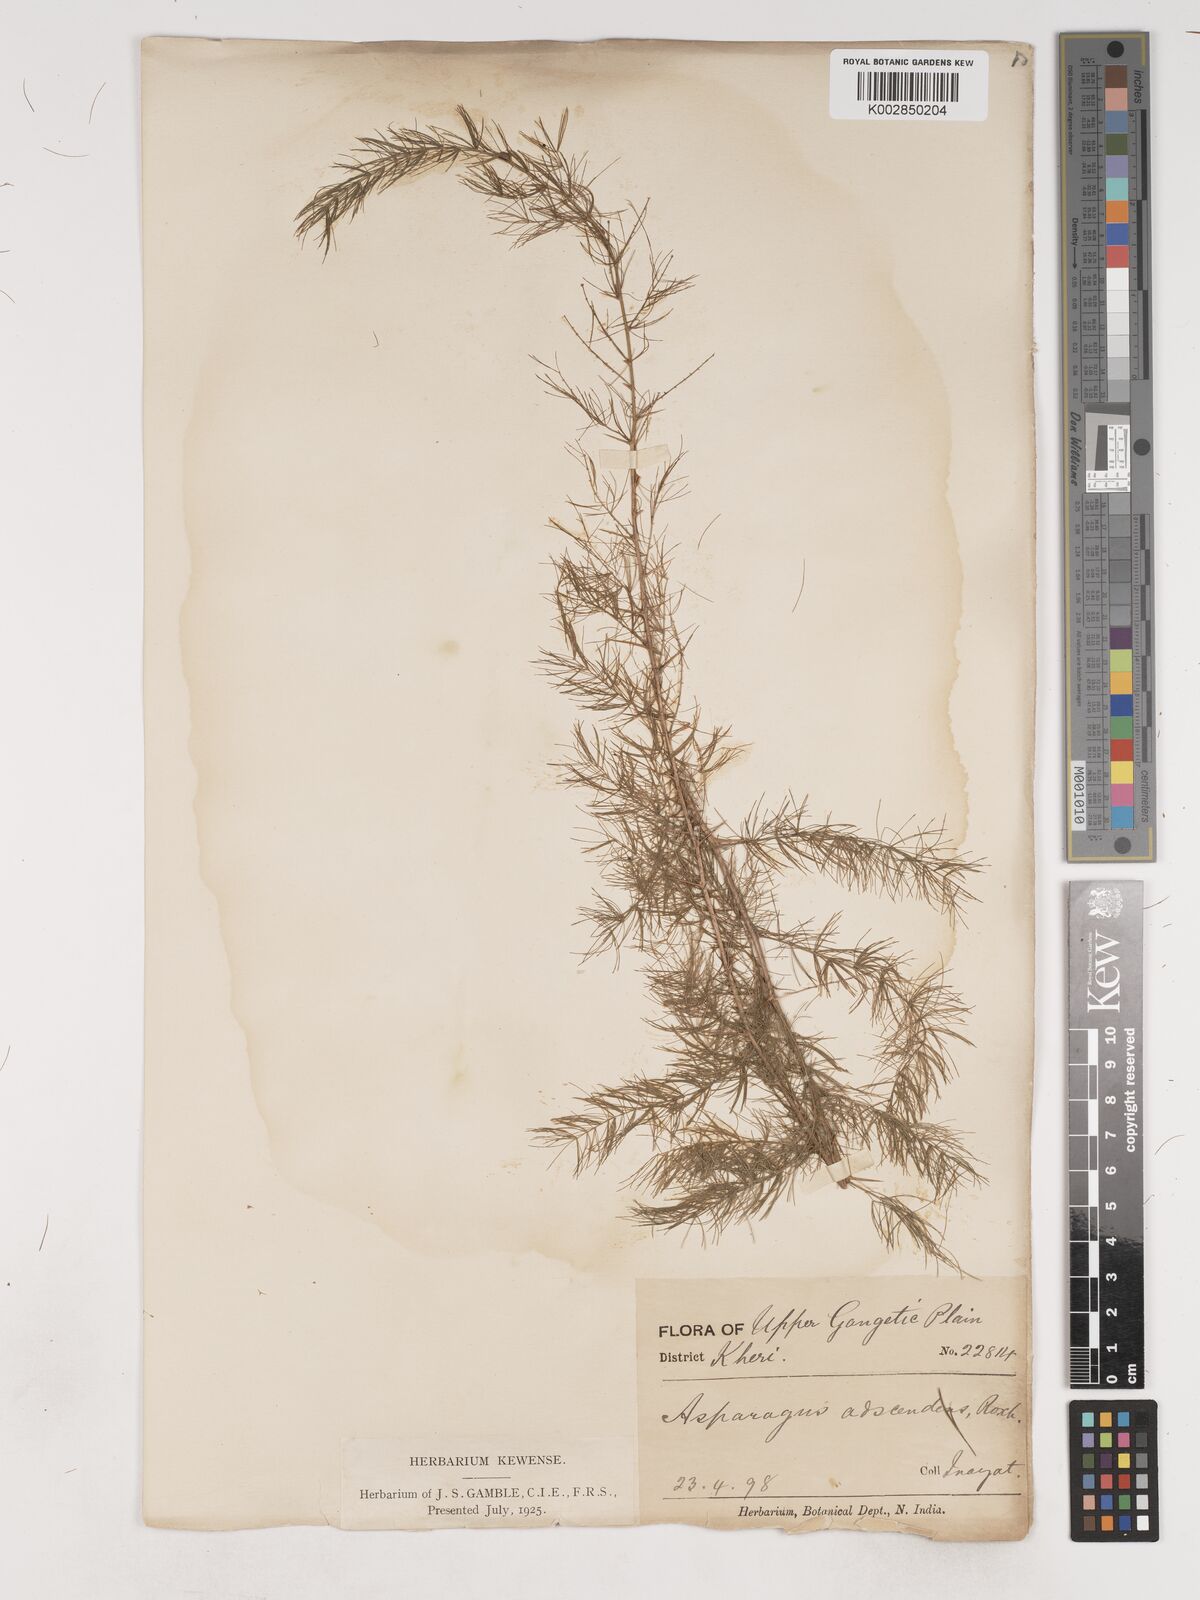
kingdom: Plantae
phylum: Tracheophyta
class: Liliopsida
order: Asparagales
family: Asparagaceae
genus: Asparagus
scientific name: Asparagus adscendens
